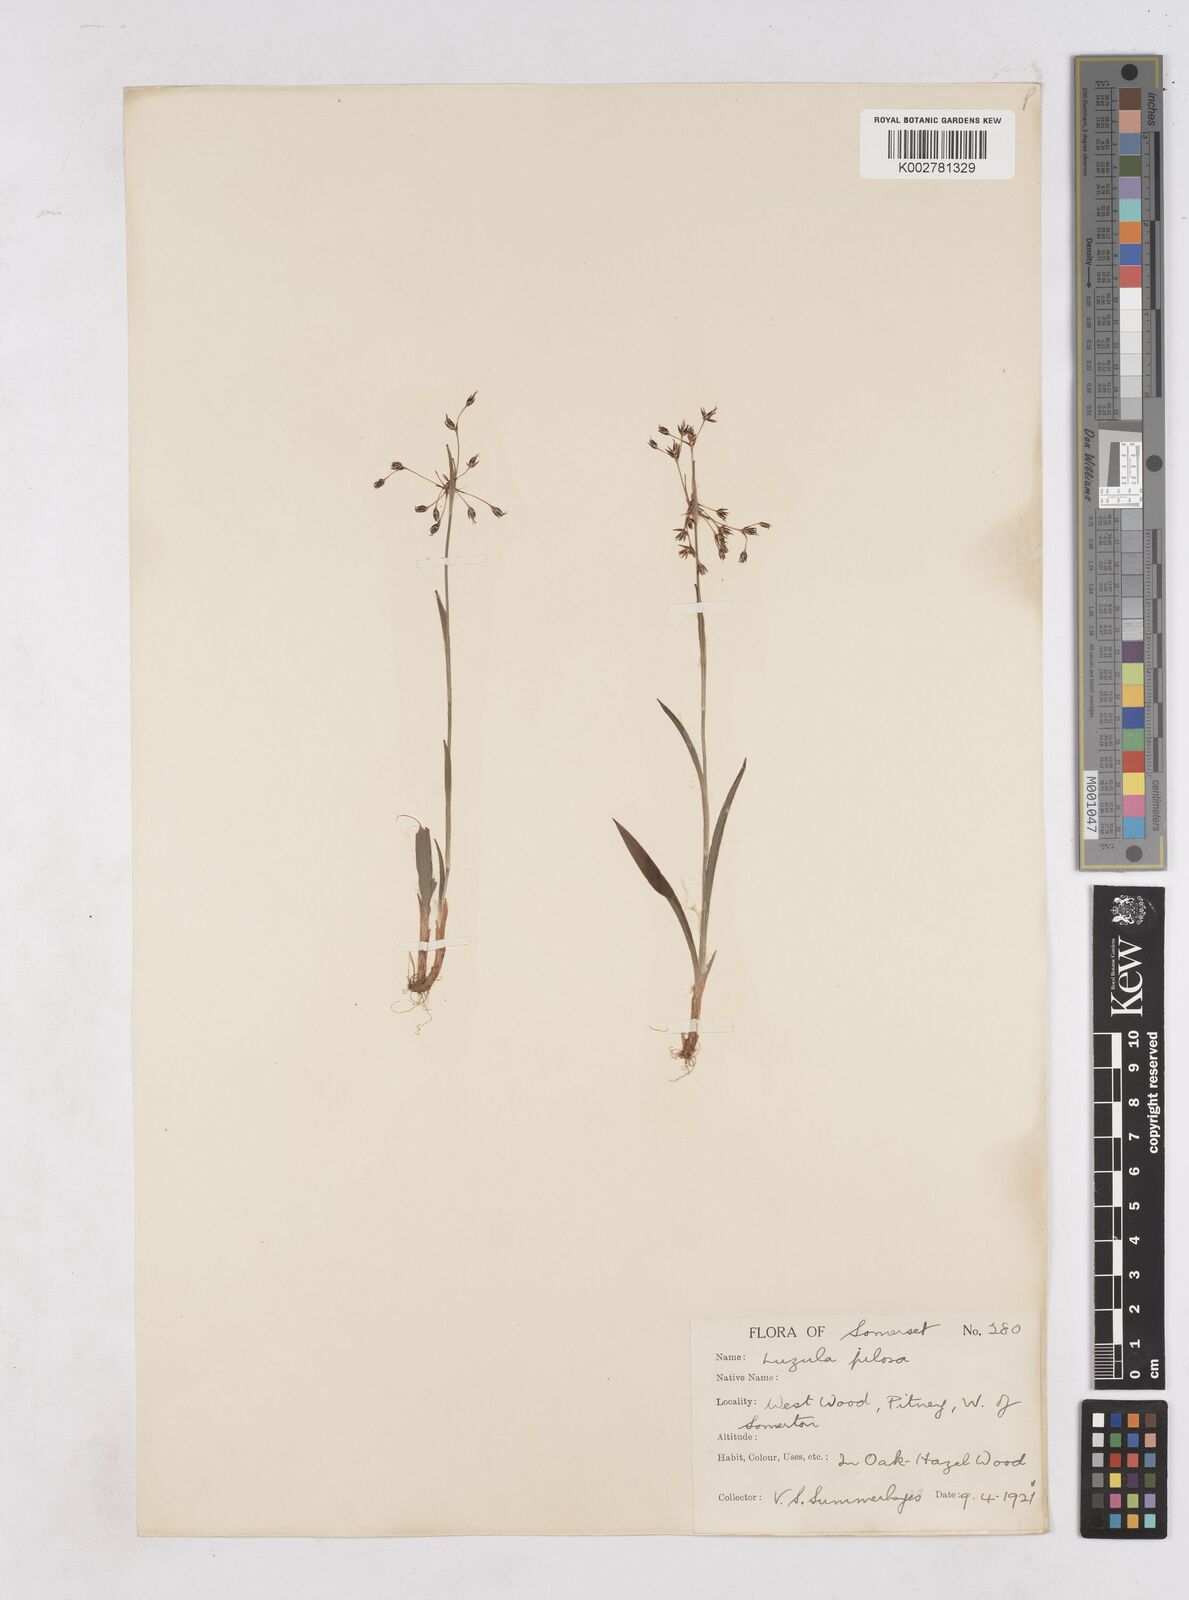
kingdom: Plantae
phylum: Tracheophyta
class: Liliopsida
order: Poales
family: Juncaceae
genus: Luzula
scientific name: Luzula pilosa
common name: Hairy wood-rush
